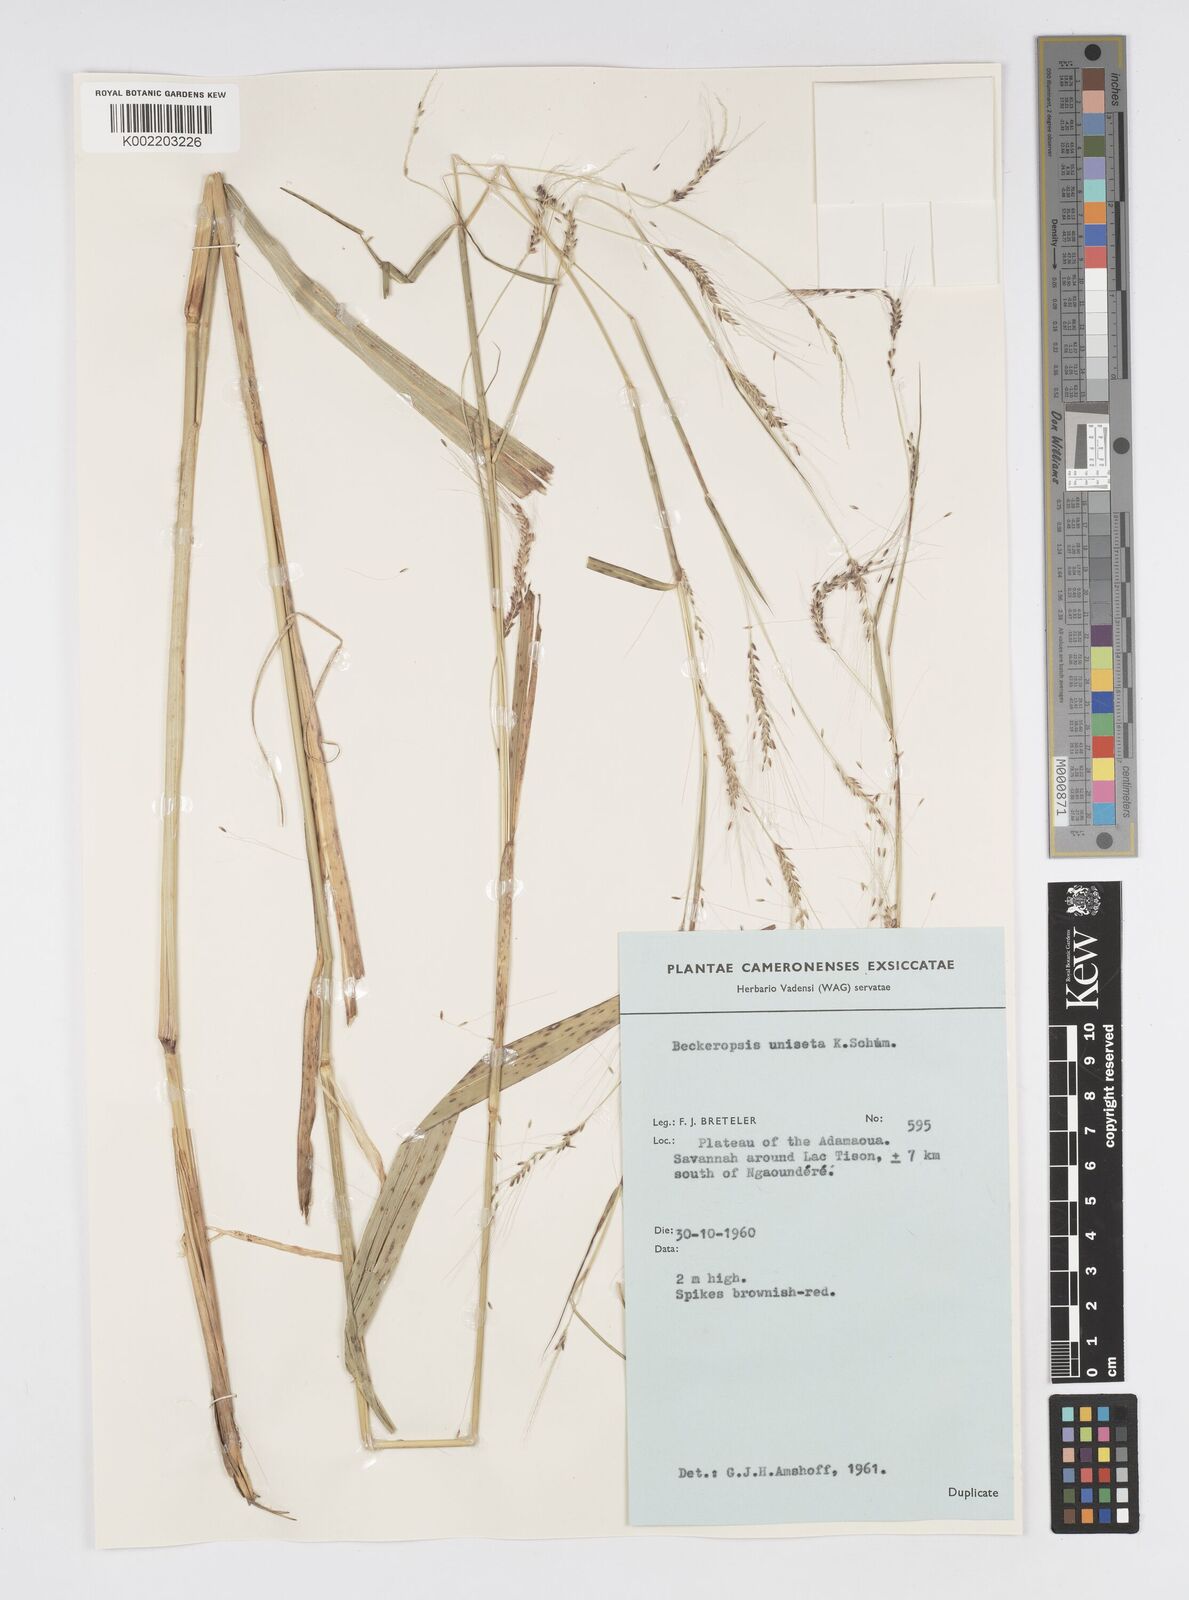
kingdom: Plantae
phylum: Tracheophyta
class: Liliopsida
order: Poales
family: Poaceae
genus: Cenchrus
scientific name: Cenchrus unisetus
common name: Natal grass
